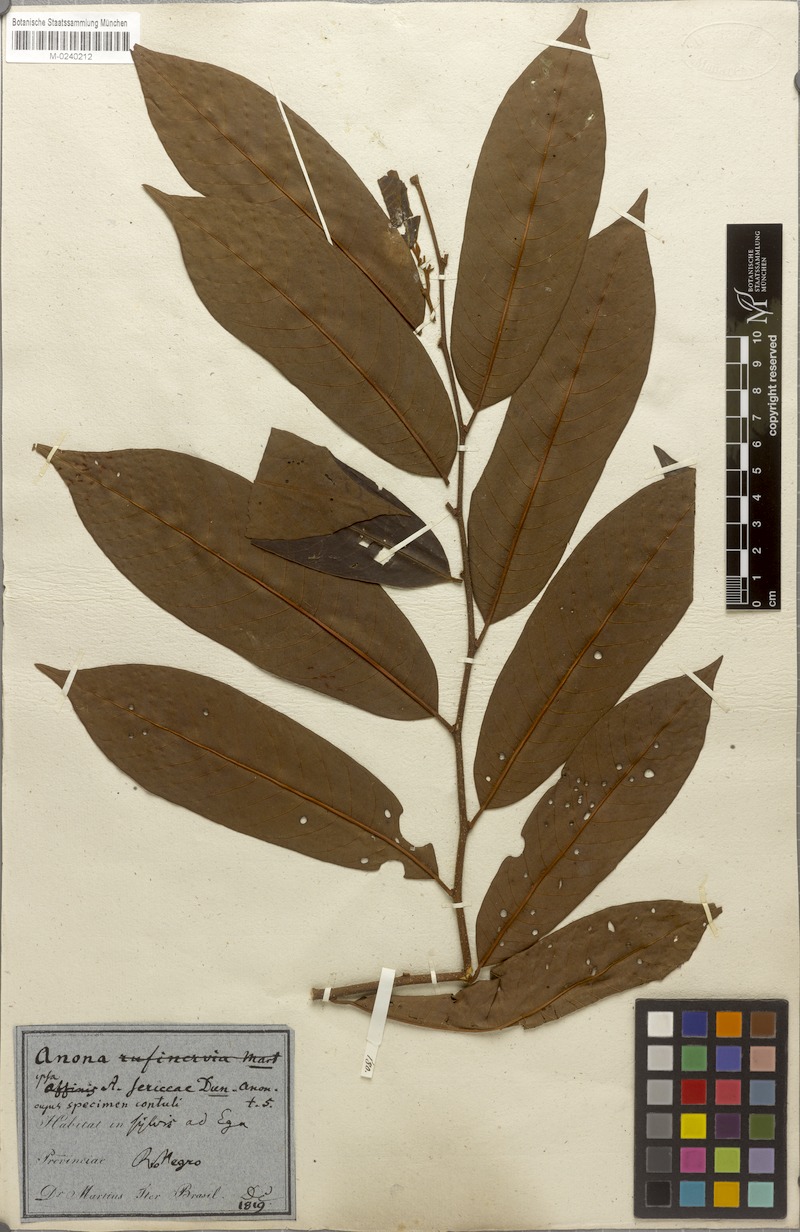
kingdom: Plantae
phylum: Tracheophyta
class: Magnoliopsida
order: Magnoliales
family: Annonaceae
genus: Annona
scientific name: Annona paraensis
